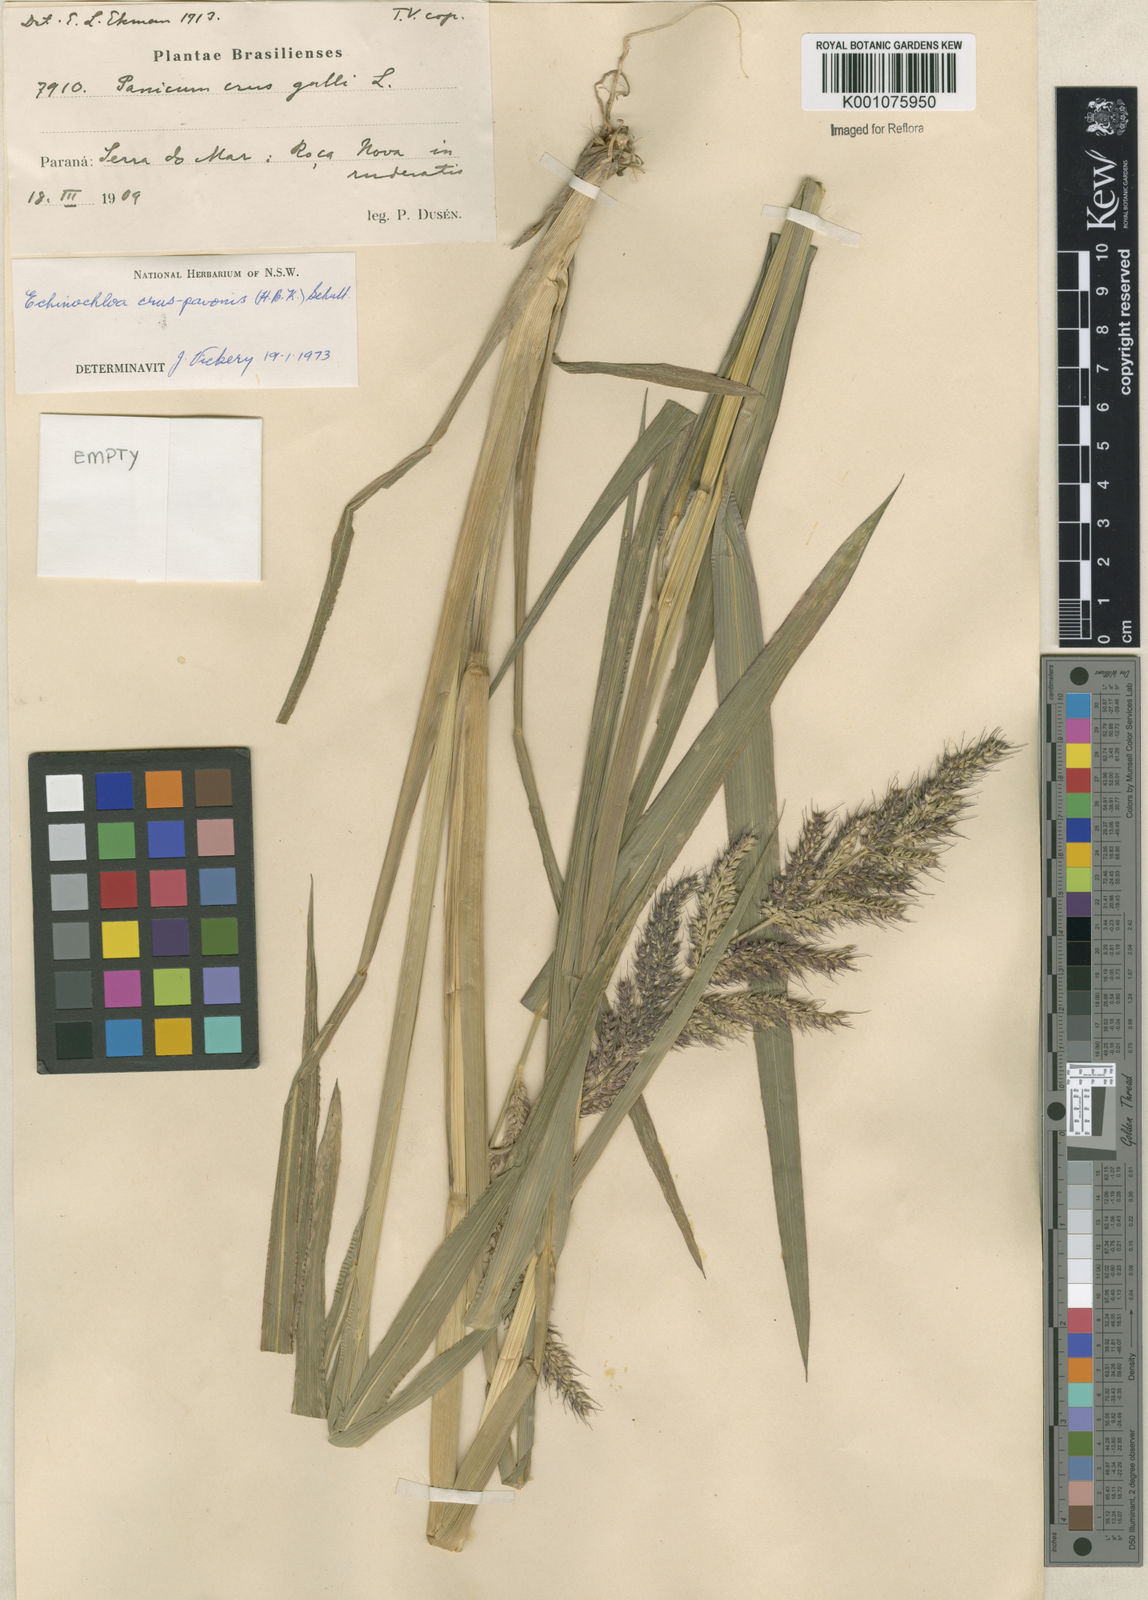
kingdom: Plantae
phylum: Tracheophyta
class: Liliopsida
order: Poales
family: Poaceae
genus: Echinochloa
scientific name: Echinochloa crus-pavonis
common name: Gulf cockspur grass
